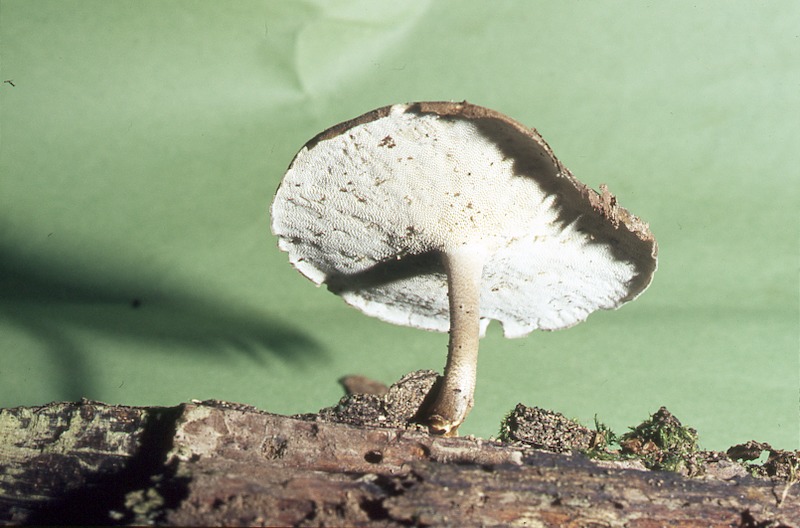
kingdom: Fungi
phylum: Basidiomycota
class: Agaricomycetes
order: Polyporales
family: Polyporaceae
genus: Lentinus
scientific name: Lentinus brumalis
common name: Winter polypore
